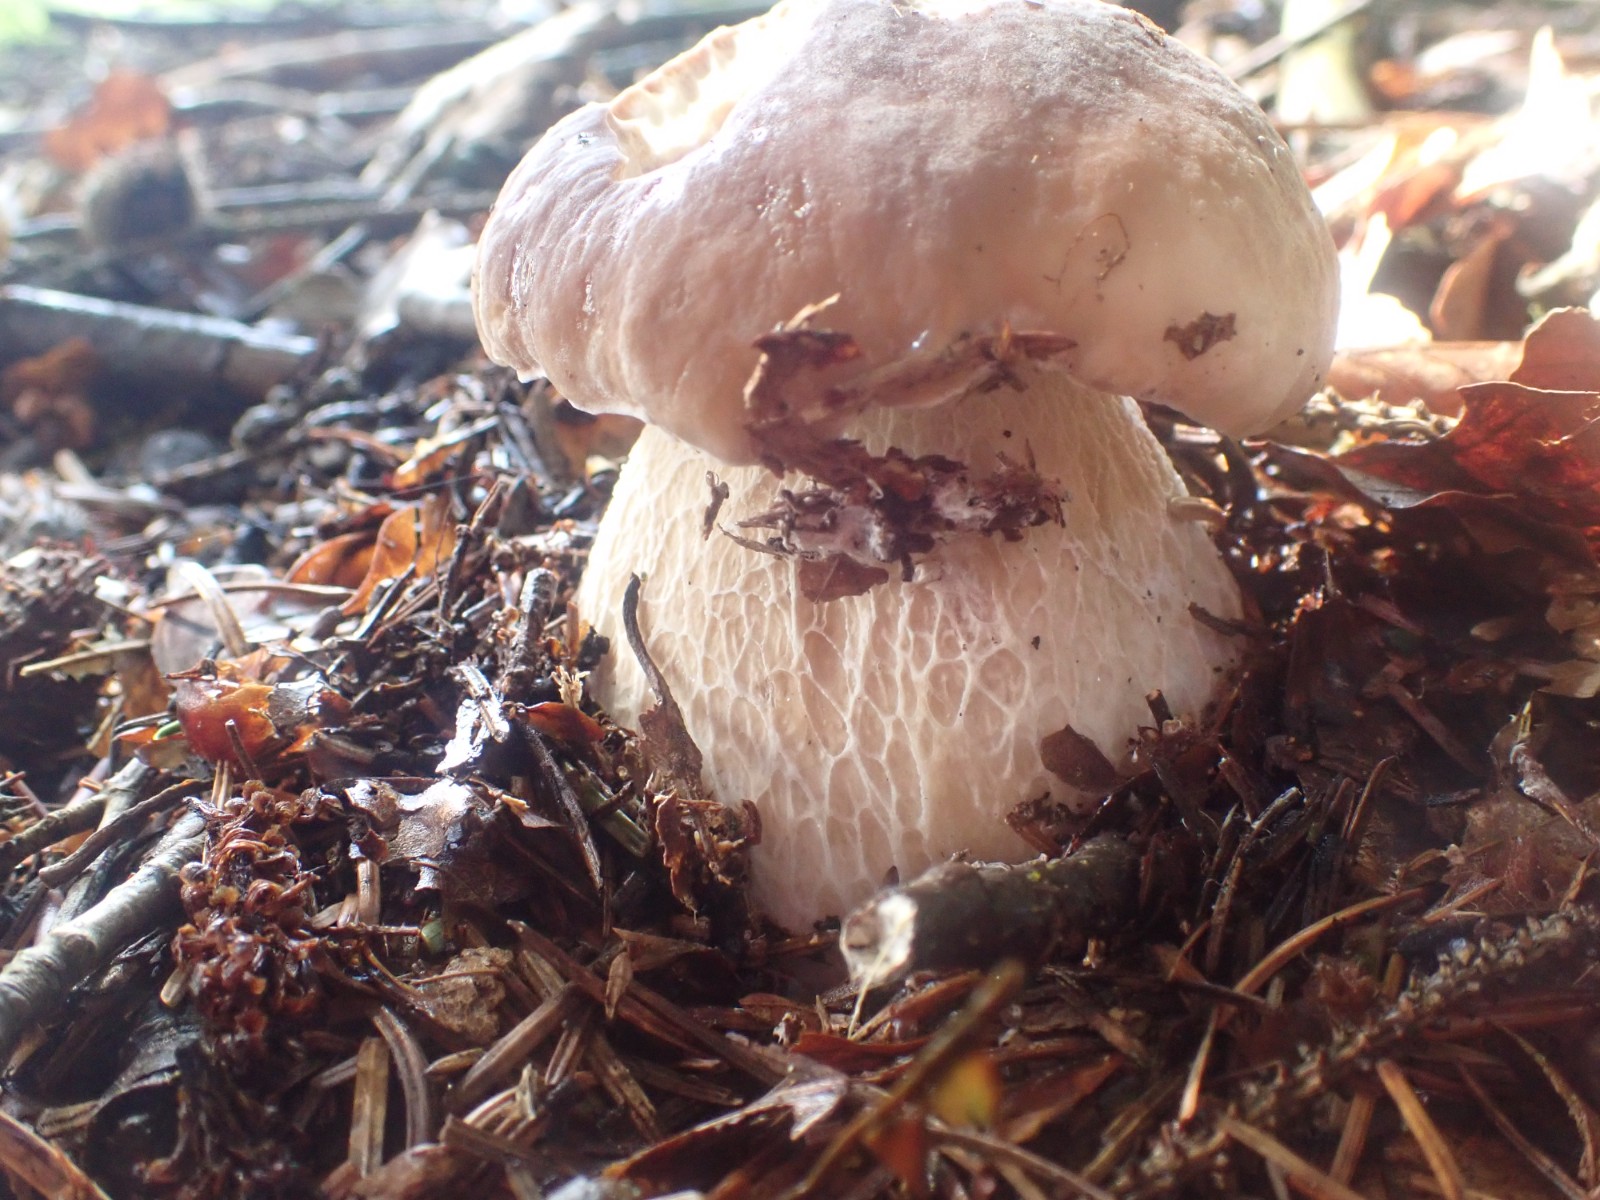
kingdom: Fungi
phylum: Basidiomycota
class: Agaricomycetes
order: Boletales
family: Boletaceae
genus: Boletus
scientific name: Boletus edulis
